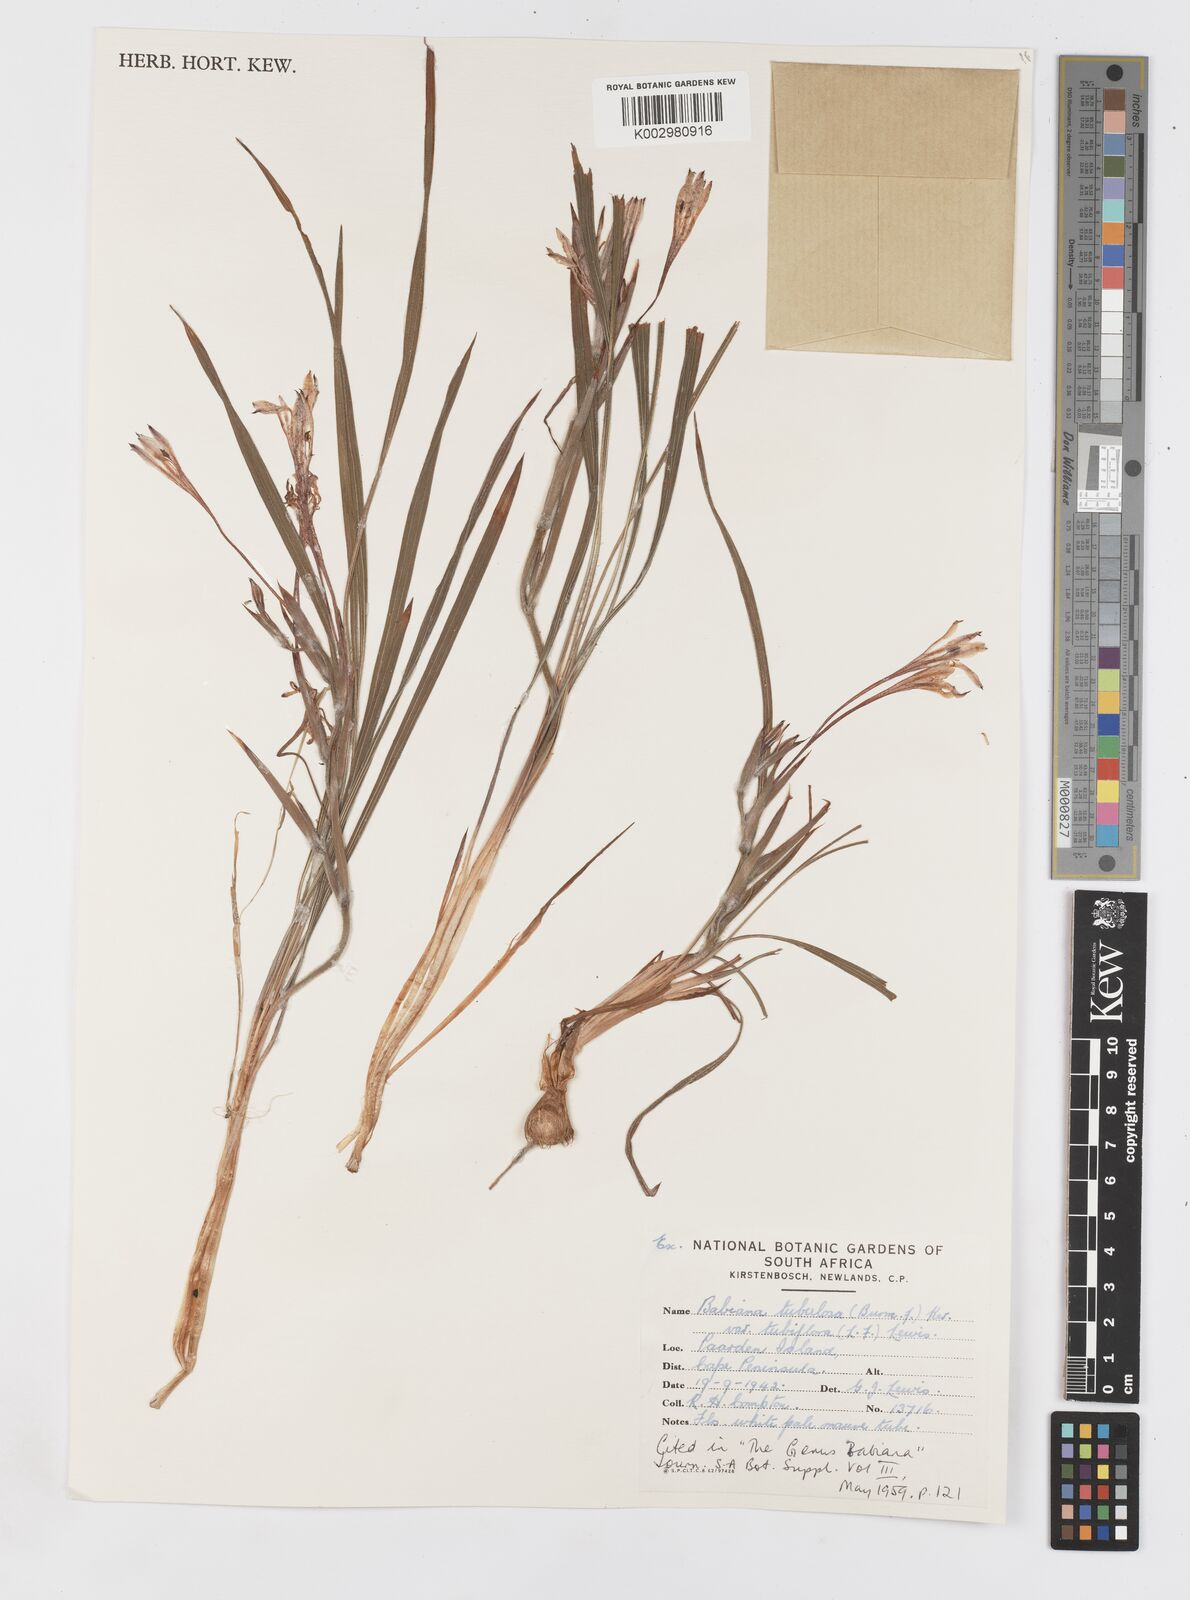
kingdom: Plantae
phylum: Tracheophyta
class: Liliopsida
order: Asparagales
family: Iridaceae
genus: Babiana
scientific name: Babiana tubiflora
